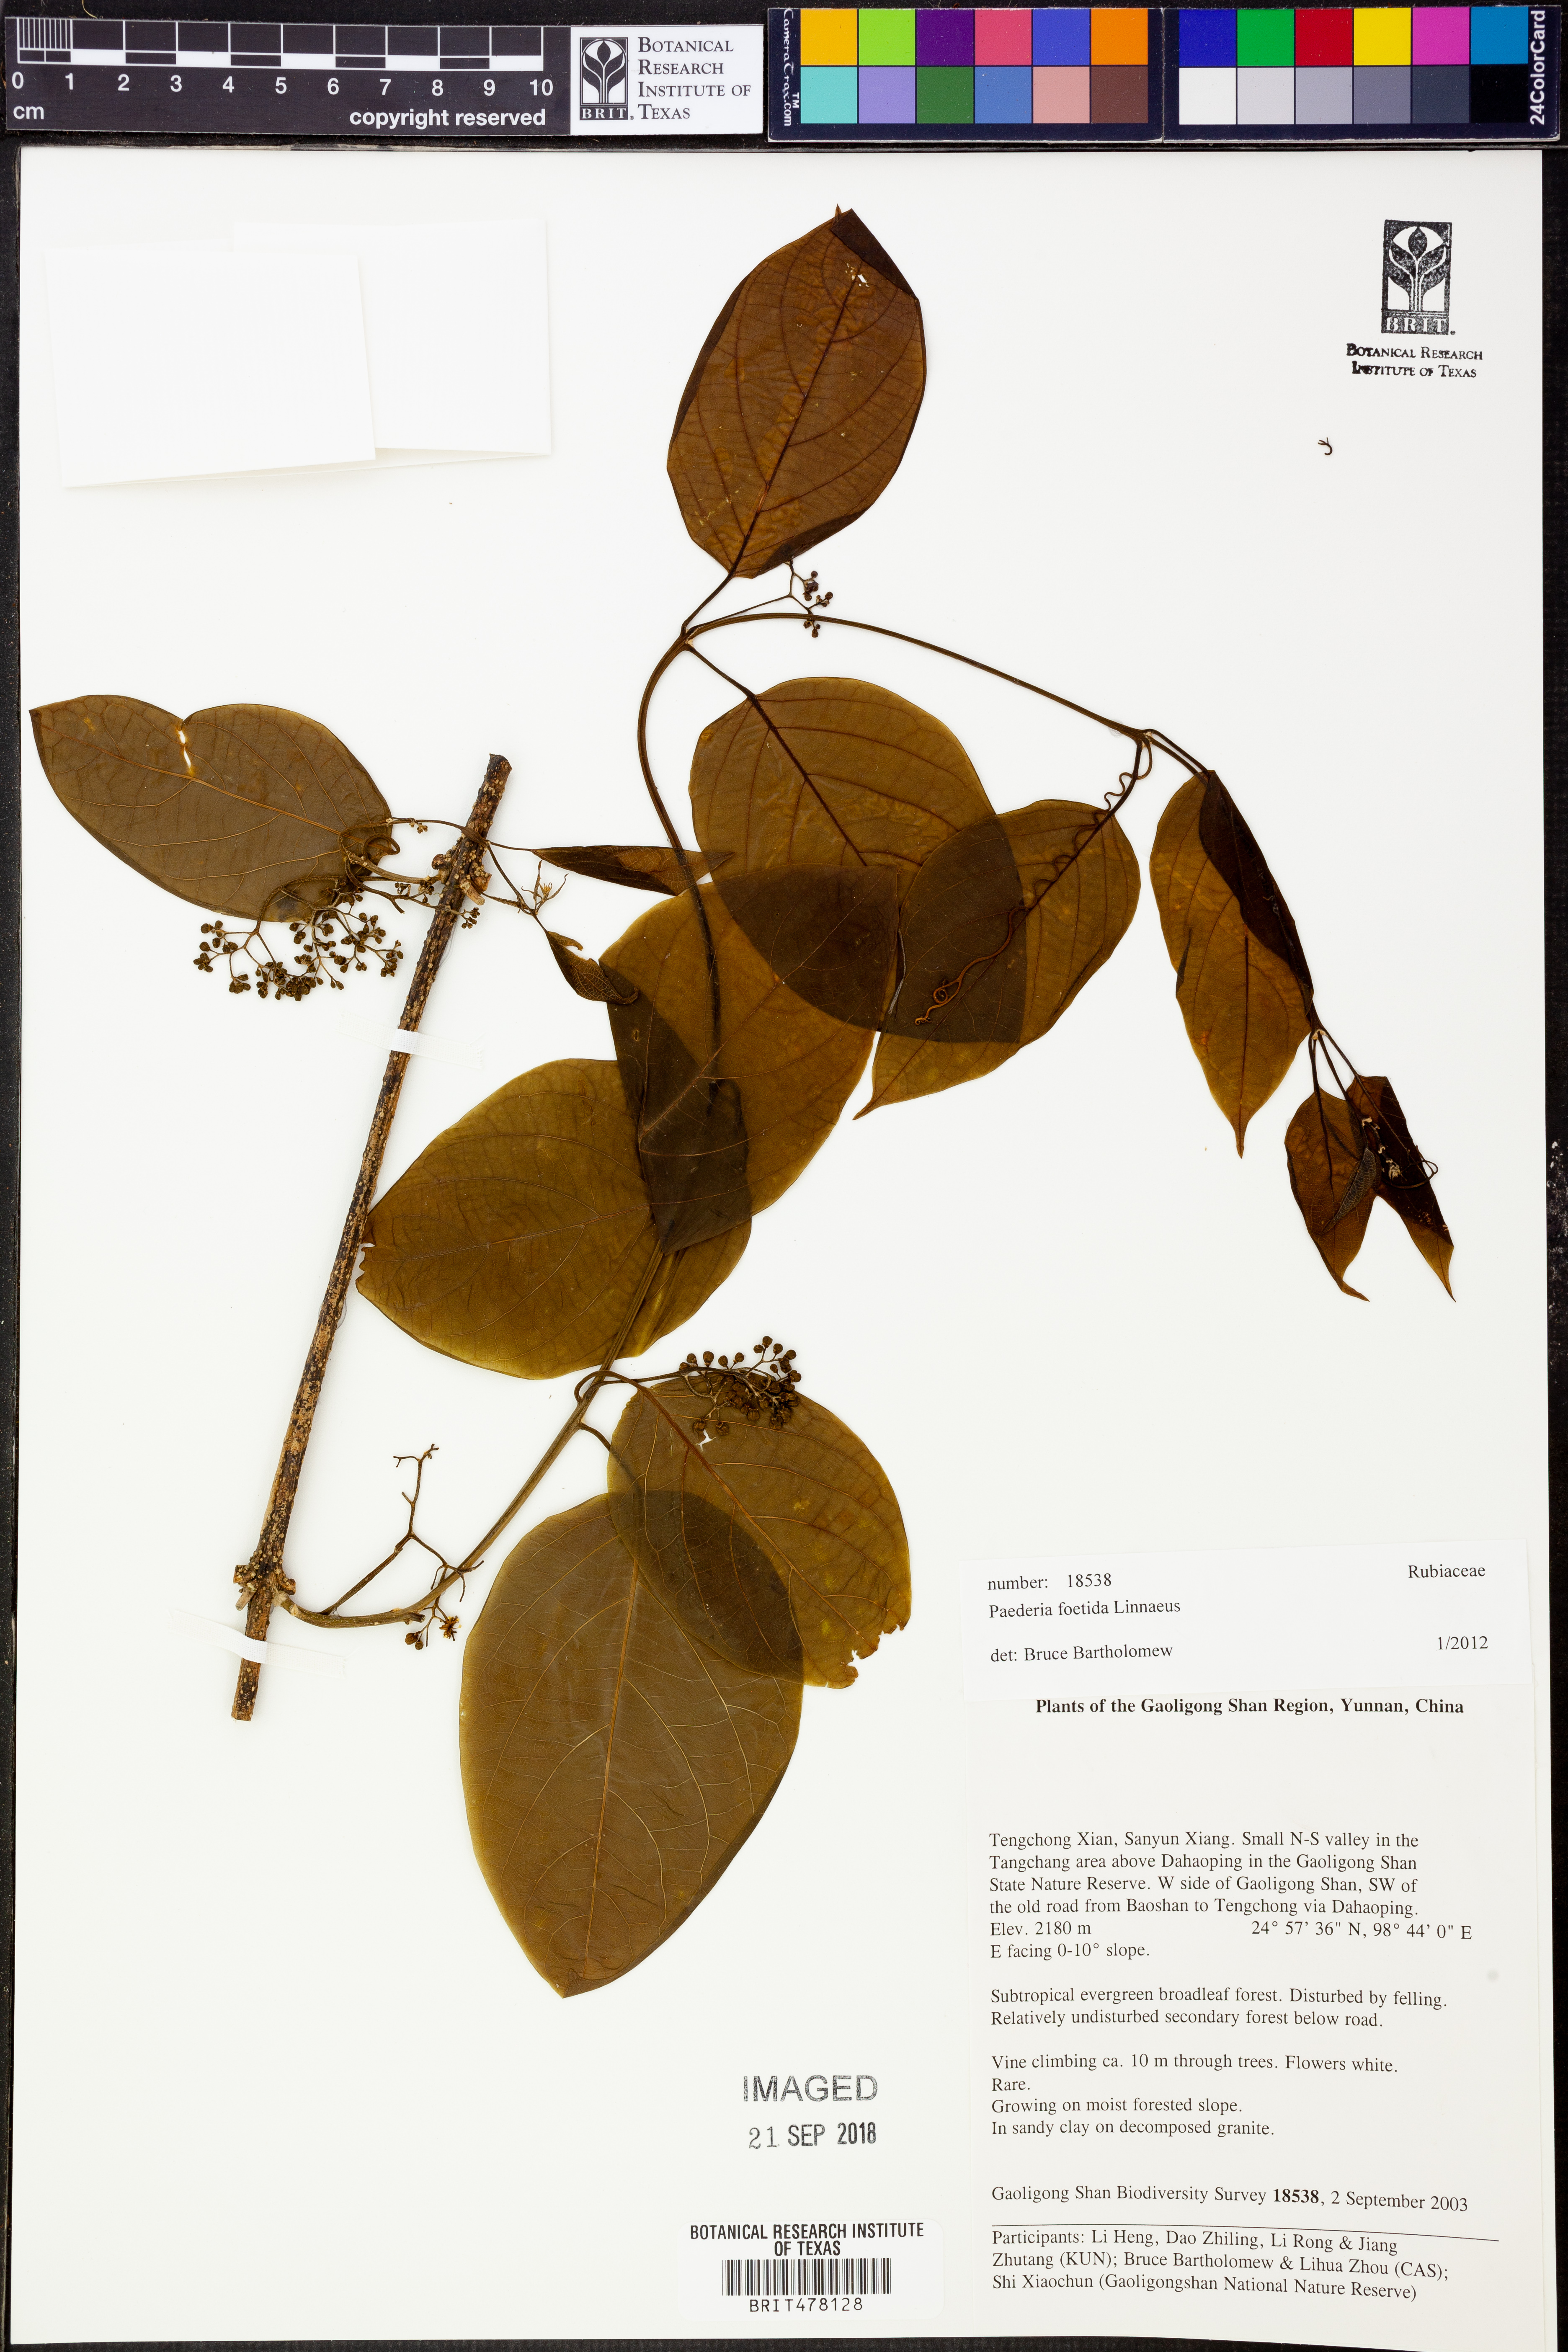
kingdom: Plantae
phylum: Tracheophyta
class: Magnoliopsida
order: Gentianales
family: Rubiaceae
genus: Paederia
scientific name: Paederia foetida
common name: Stinkvine
